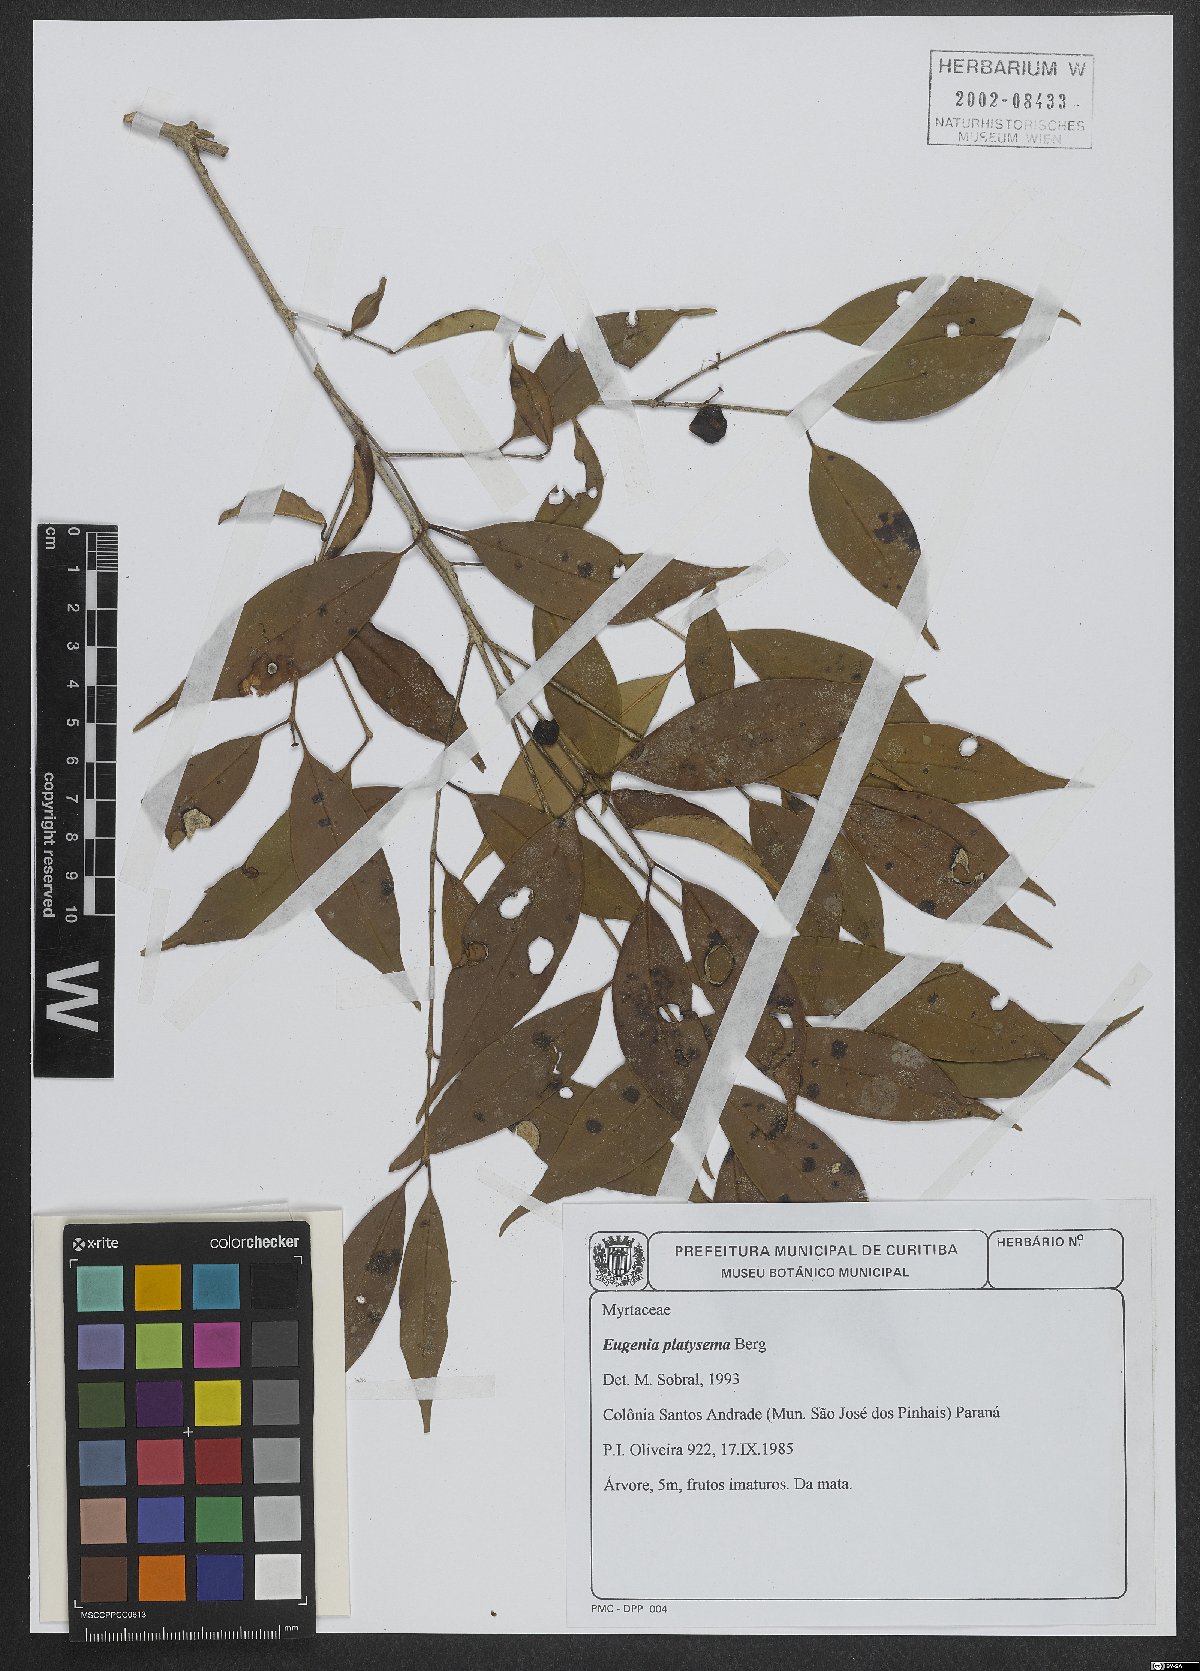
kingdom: Plantae
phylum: Tracheophyta
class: Magnoliopsida
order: Myrtales
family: Myrtaceae
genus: Eugenia
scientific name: Eugenia platysema
